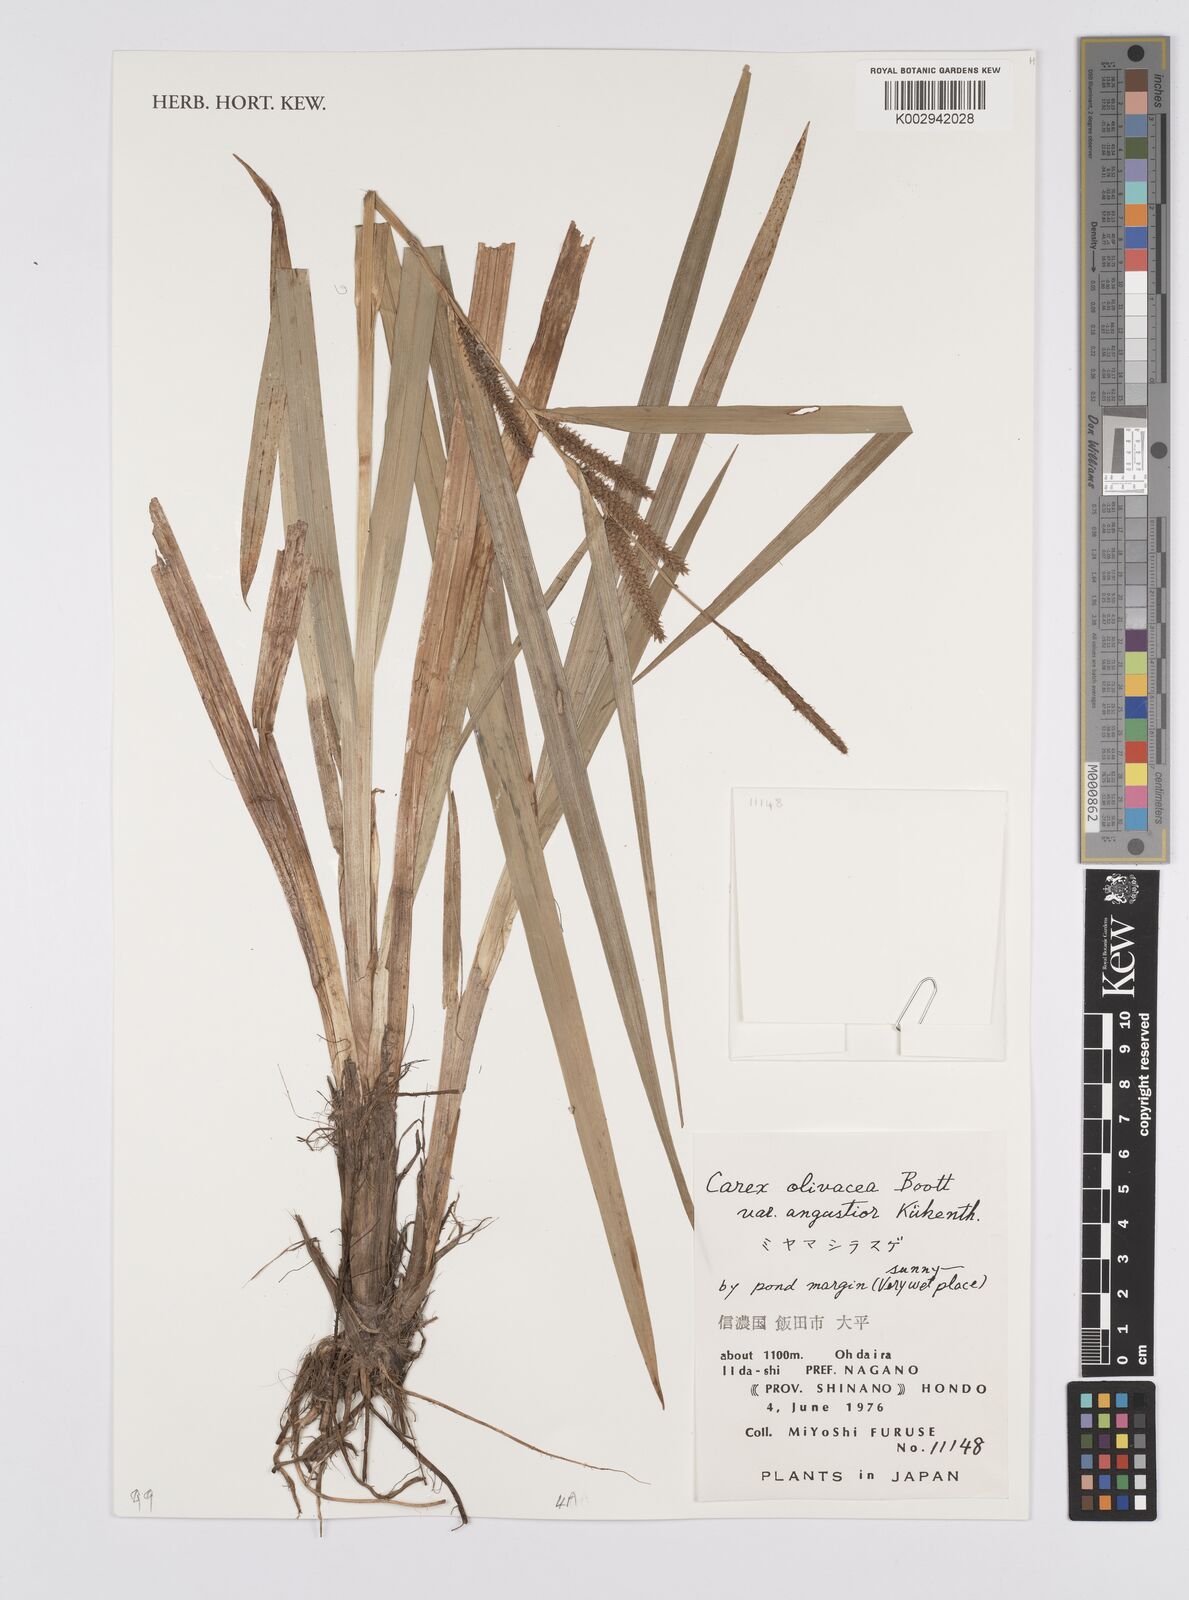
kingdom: Plantae
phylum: Tracheophyta
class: Liliopsida
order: Poales
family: Cyperaceae
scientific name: Cyperaceae
